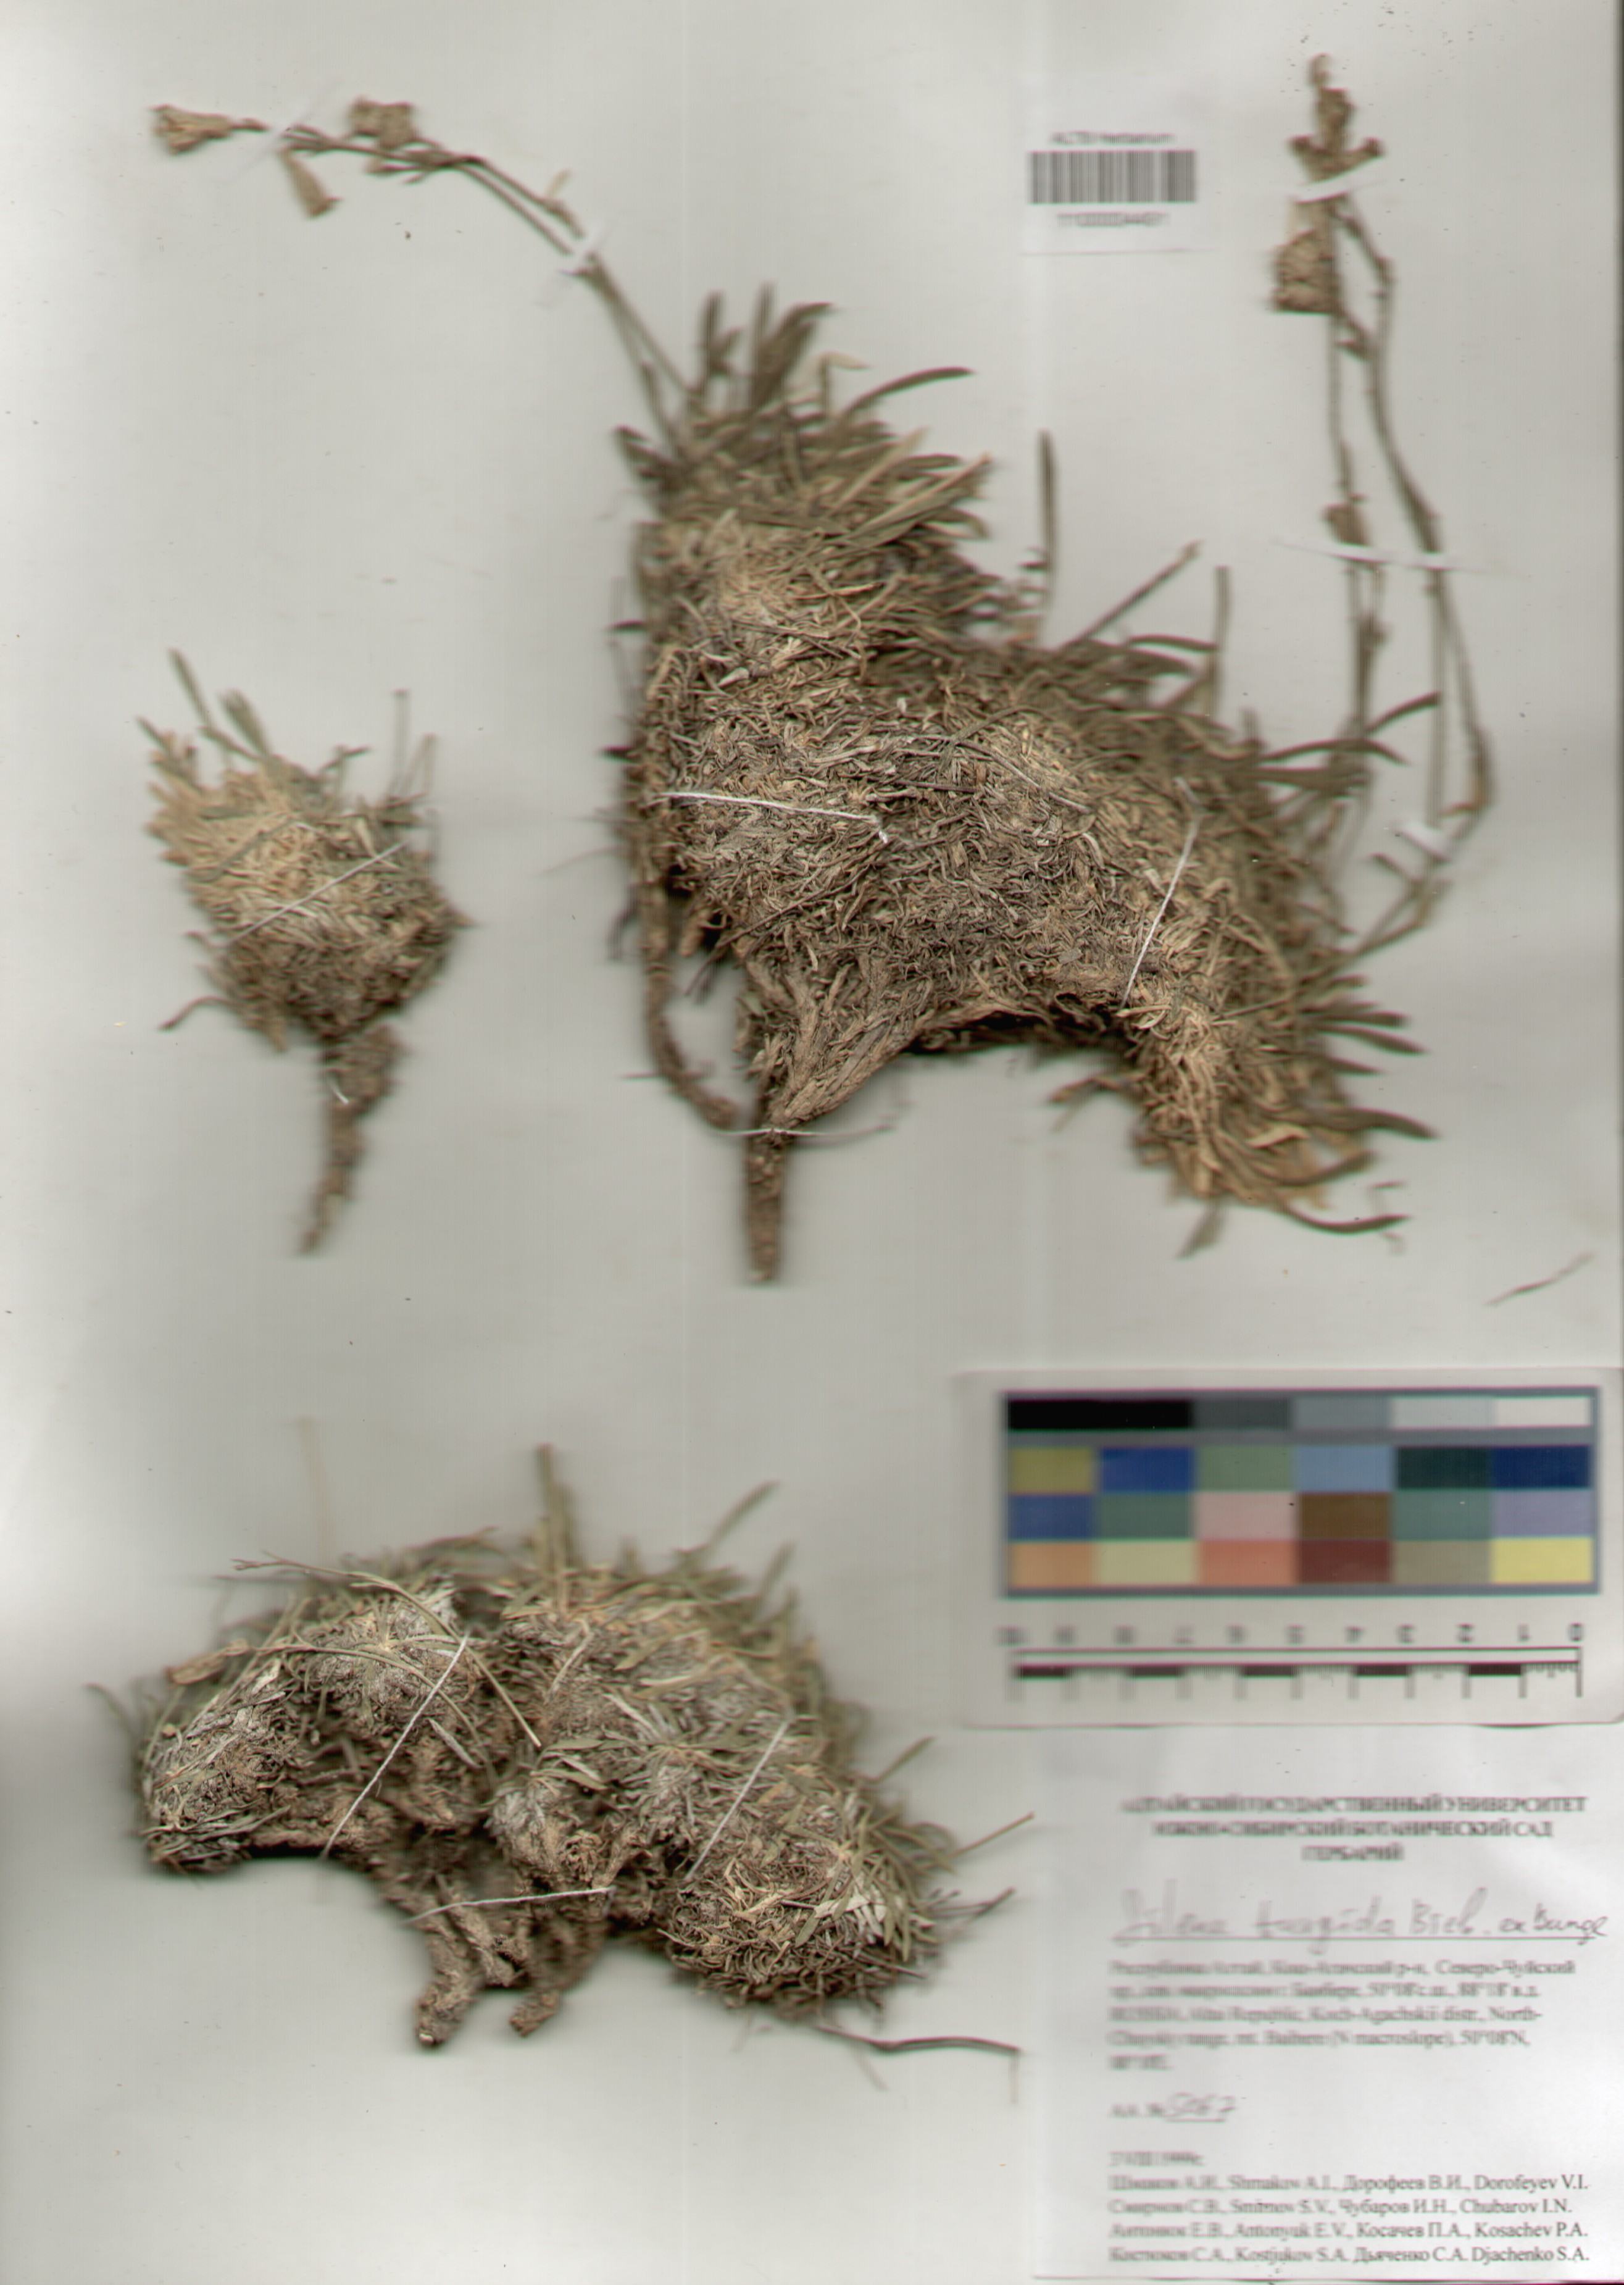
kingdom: Plantae
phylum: Tracheophyta
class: Magnoliopsida
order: Caryophyllales
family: Caryophyllaceae
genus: Silene
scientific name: Silene turgida
